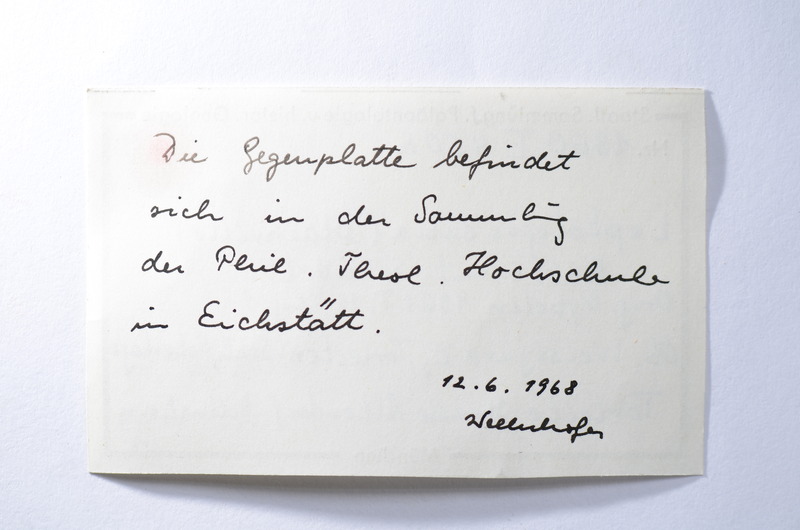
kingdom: Animalia
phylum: Chordata
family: Ascalaboidae
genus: Tharsis
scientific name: Tharsis dubius
